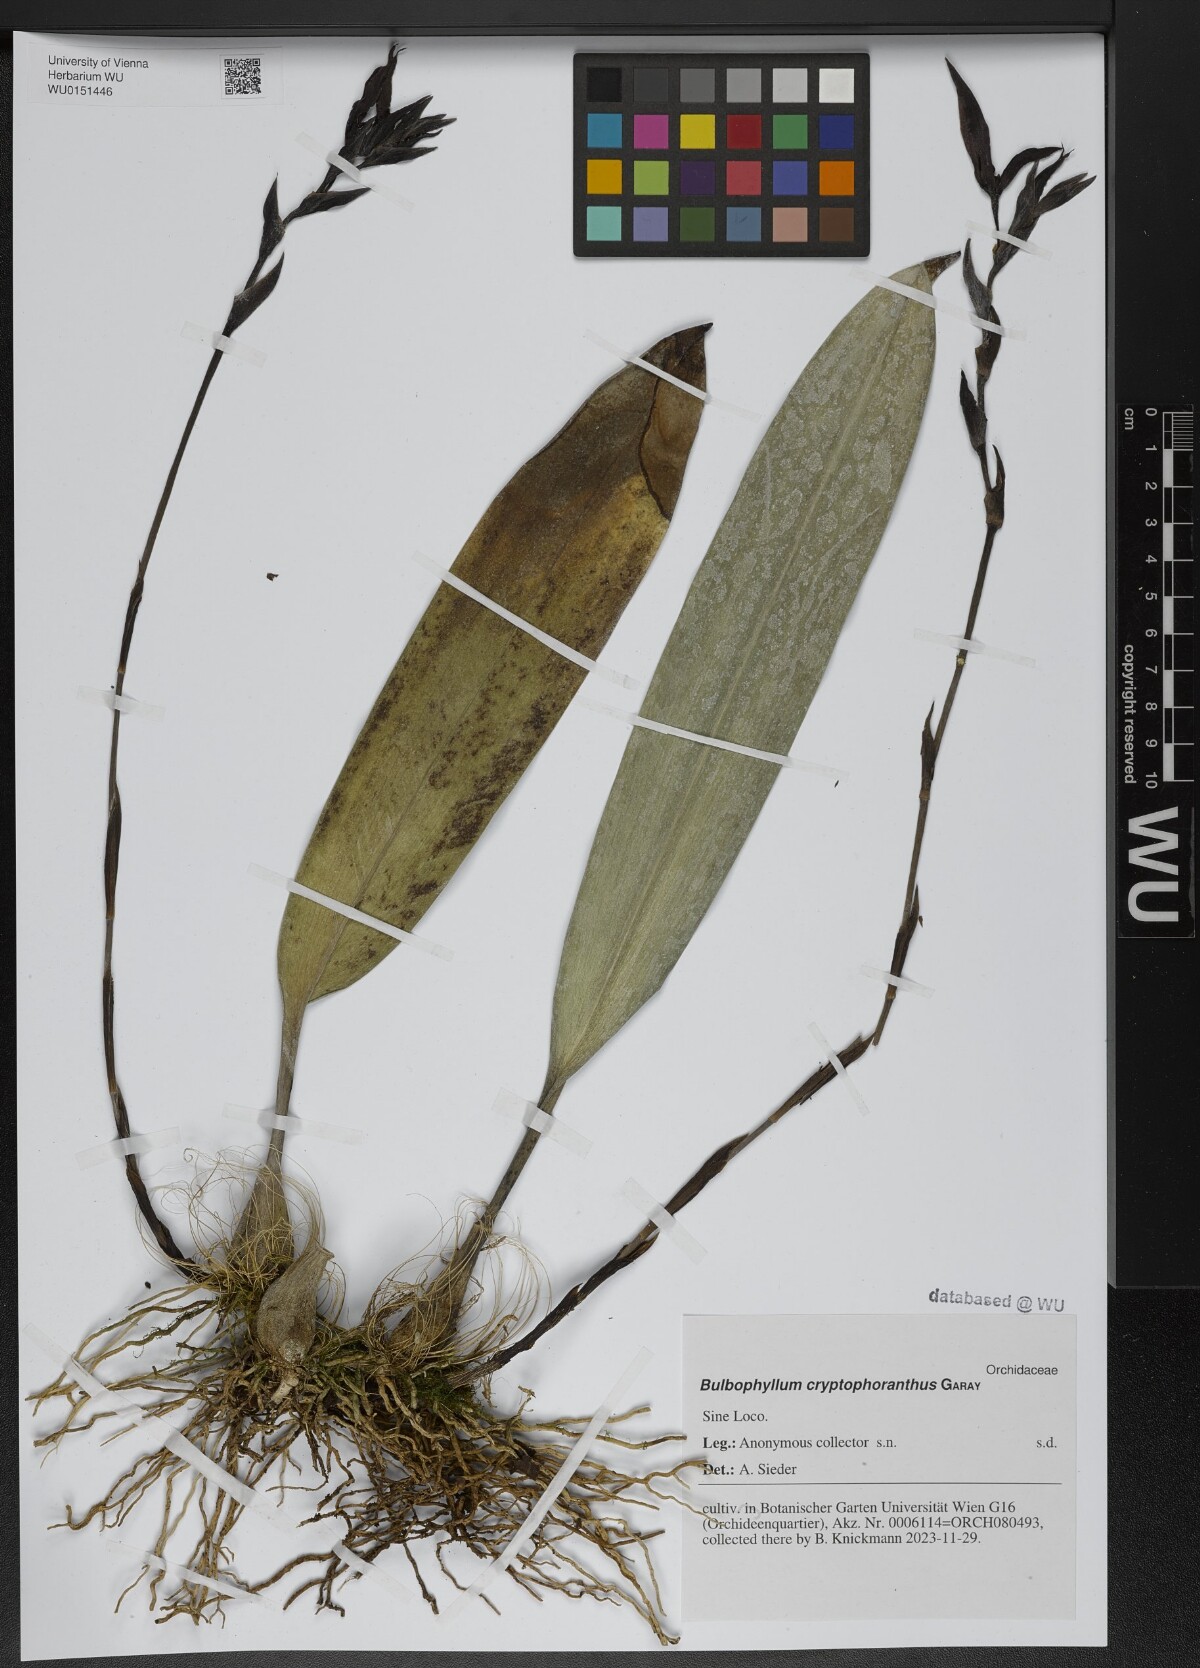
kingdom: Plantae
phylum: Tracheophyta
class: Liliopsida
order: Asparagales
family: Orchidaceae
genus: Bulbophyllum
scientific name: Bulbophyllum cryptophoranthus
